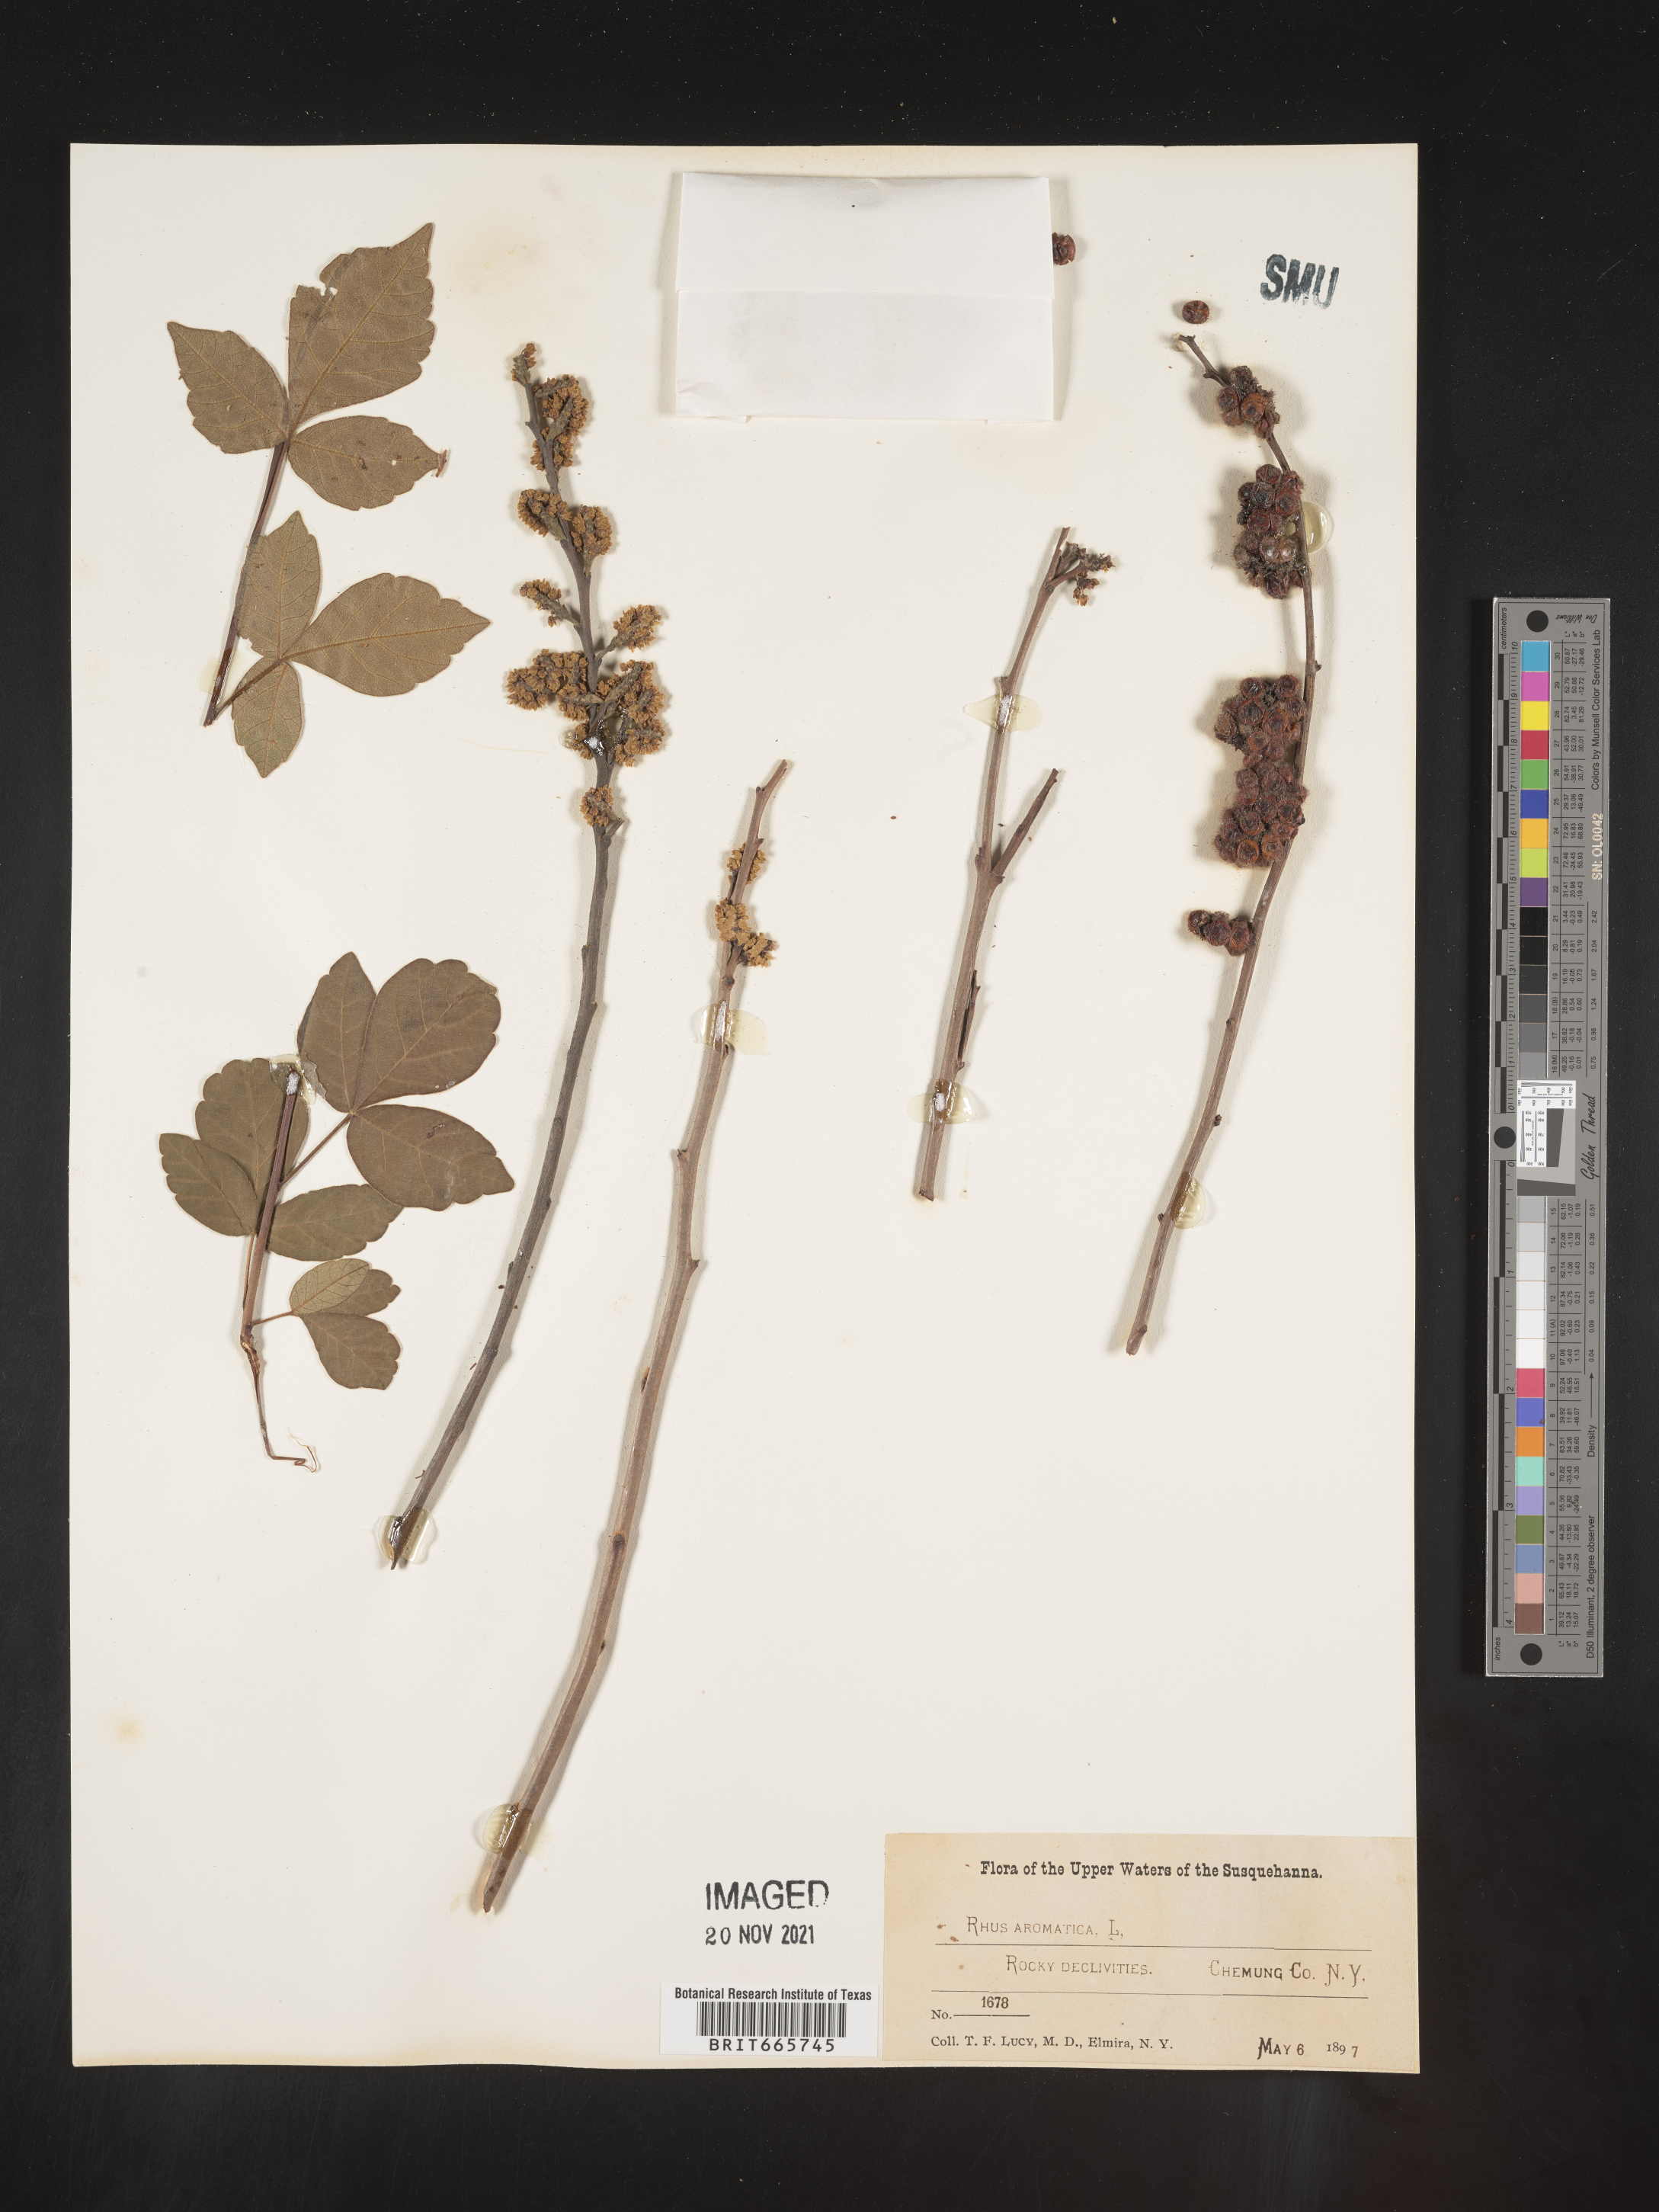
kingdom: Plantae
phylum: Tracheophyta
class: Magnoliopsida
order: Sapindales
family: Anacardiaceae
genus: Rhus
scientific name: Rhus aromatica
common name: Aromatic sumac
